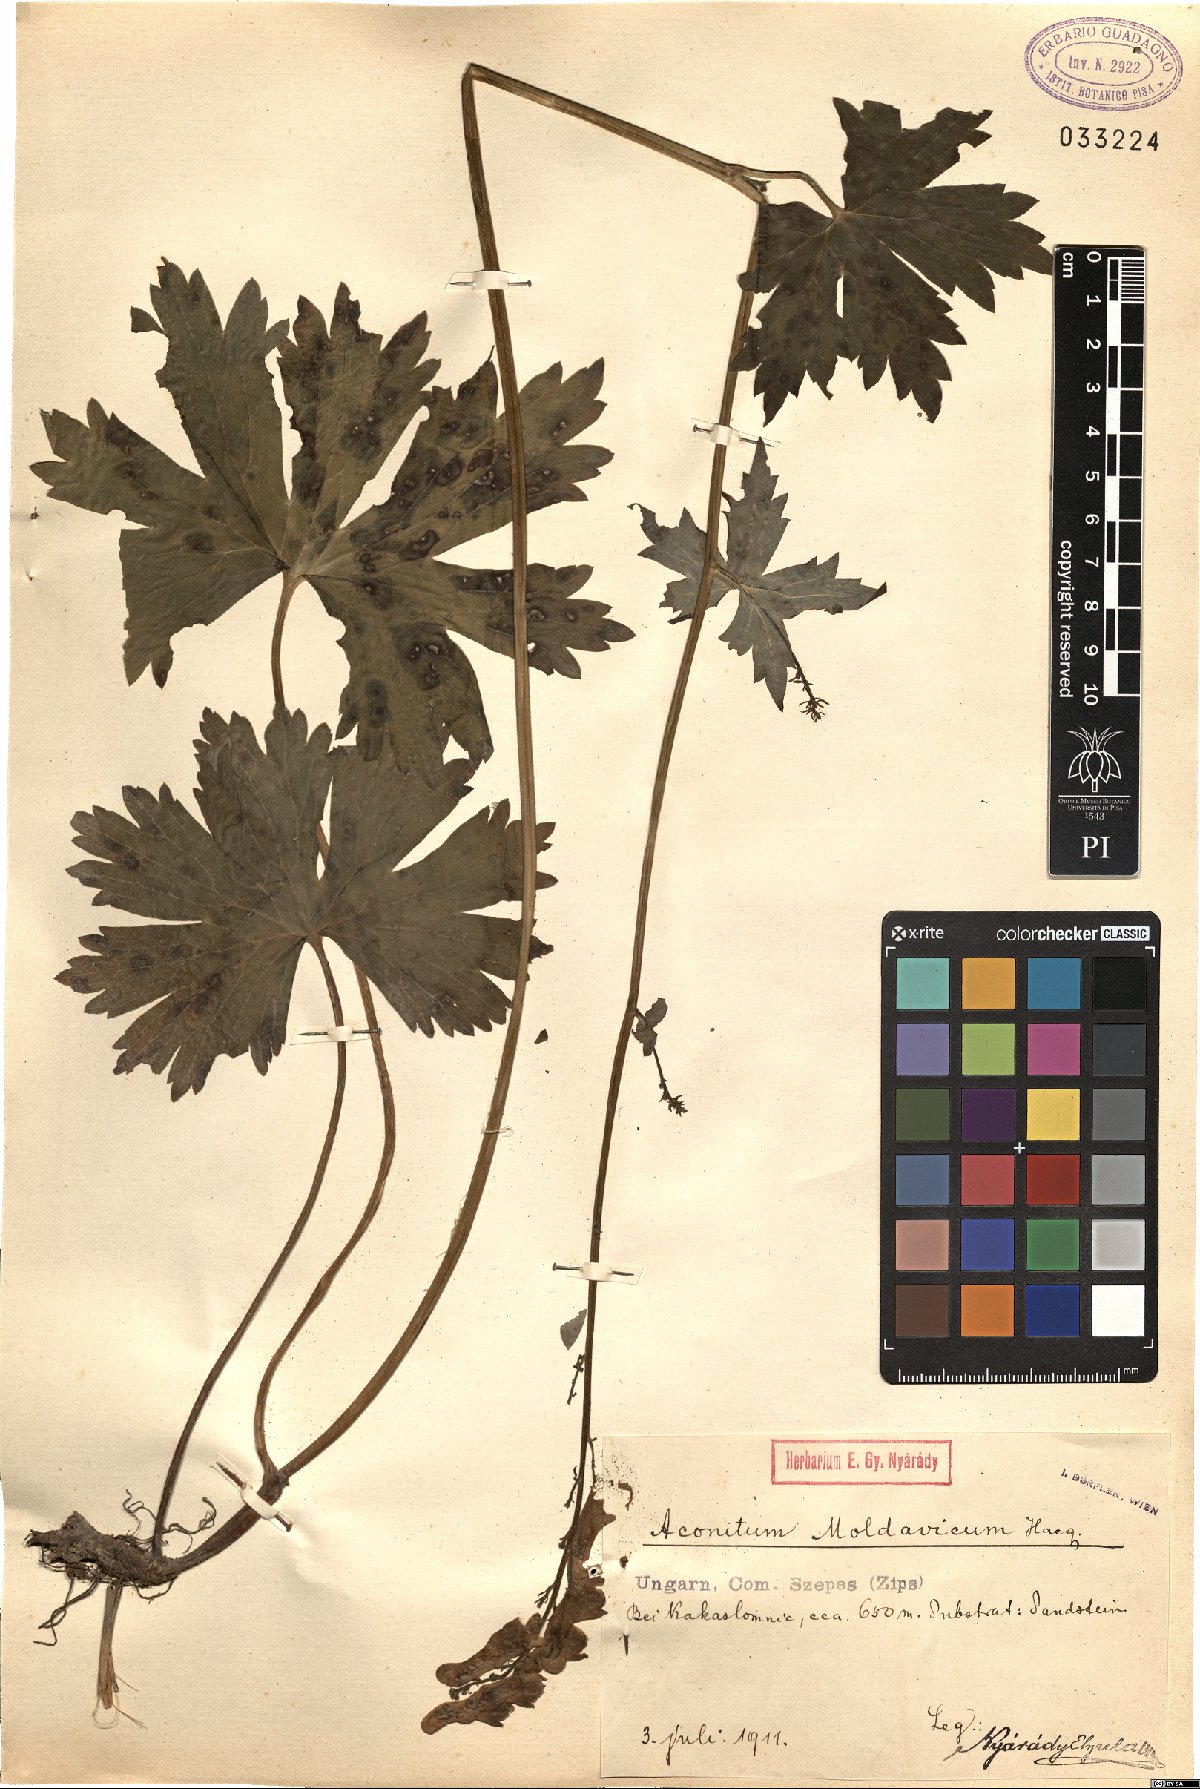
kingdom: Plantae
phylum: Tracheophyta
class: Magnoliopsida
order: Ranunculales
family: Ranunculaceae
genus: Aconitum
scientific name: Aconitum lycoctonum
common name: Wolf's-bane
